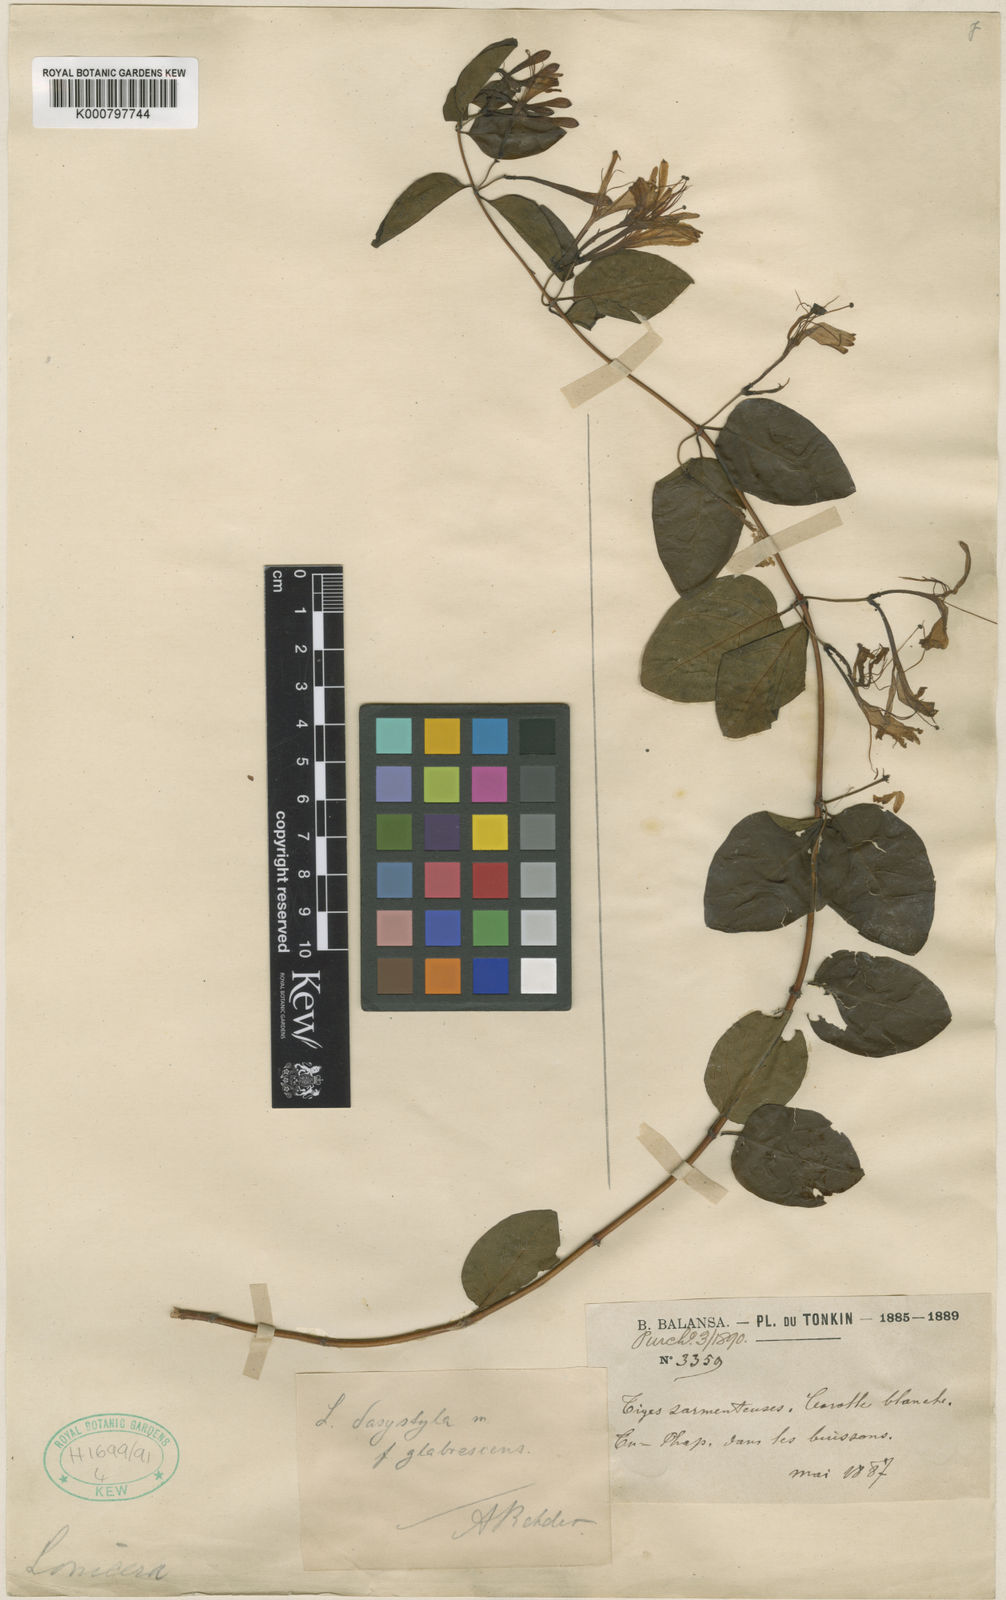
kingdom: Plantae
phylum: Tracheophyta
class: Magnoliopsida
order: Dipsacales
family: Caprifoliaceae
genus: Lonicera
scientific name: Lonicera confusa
